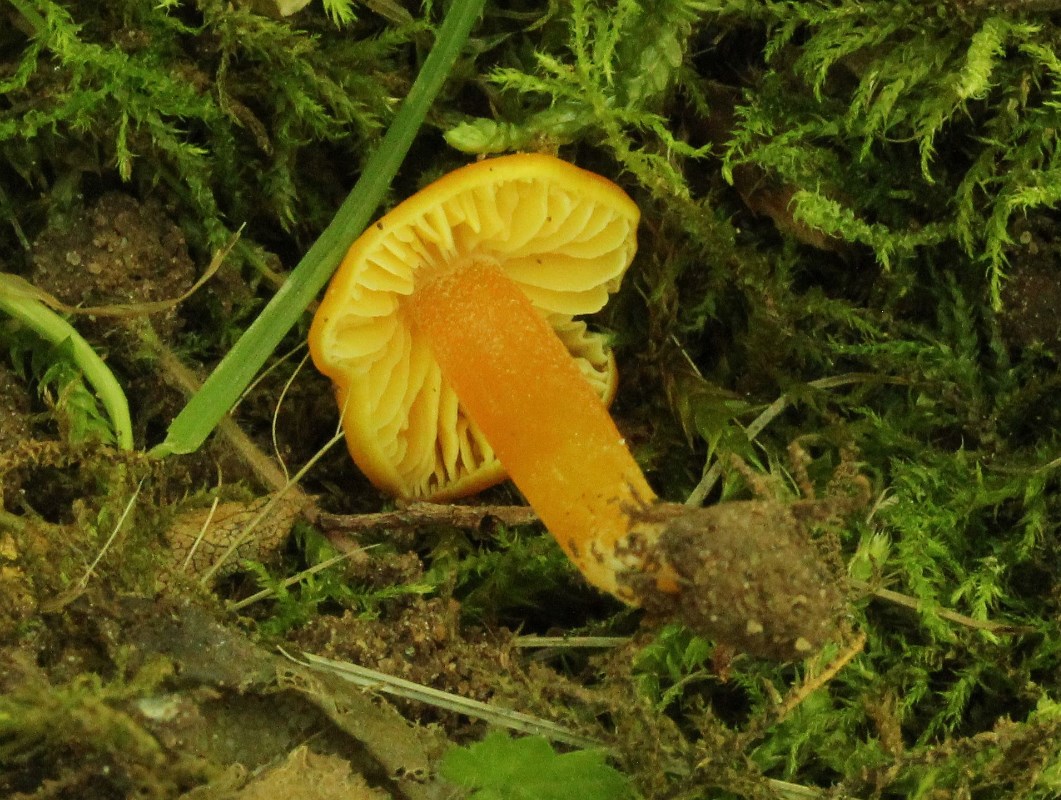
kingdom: Fungi
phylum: Basidiomycota
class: Agaricomycetes
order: Agaricales
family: Hygrophoraceae
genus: Hygrocybe
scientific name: Hygrocybe chlorophana
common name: gul vokshat
